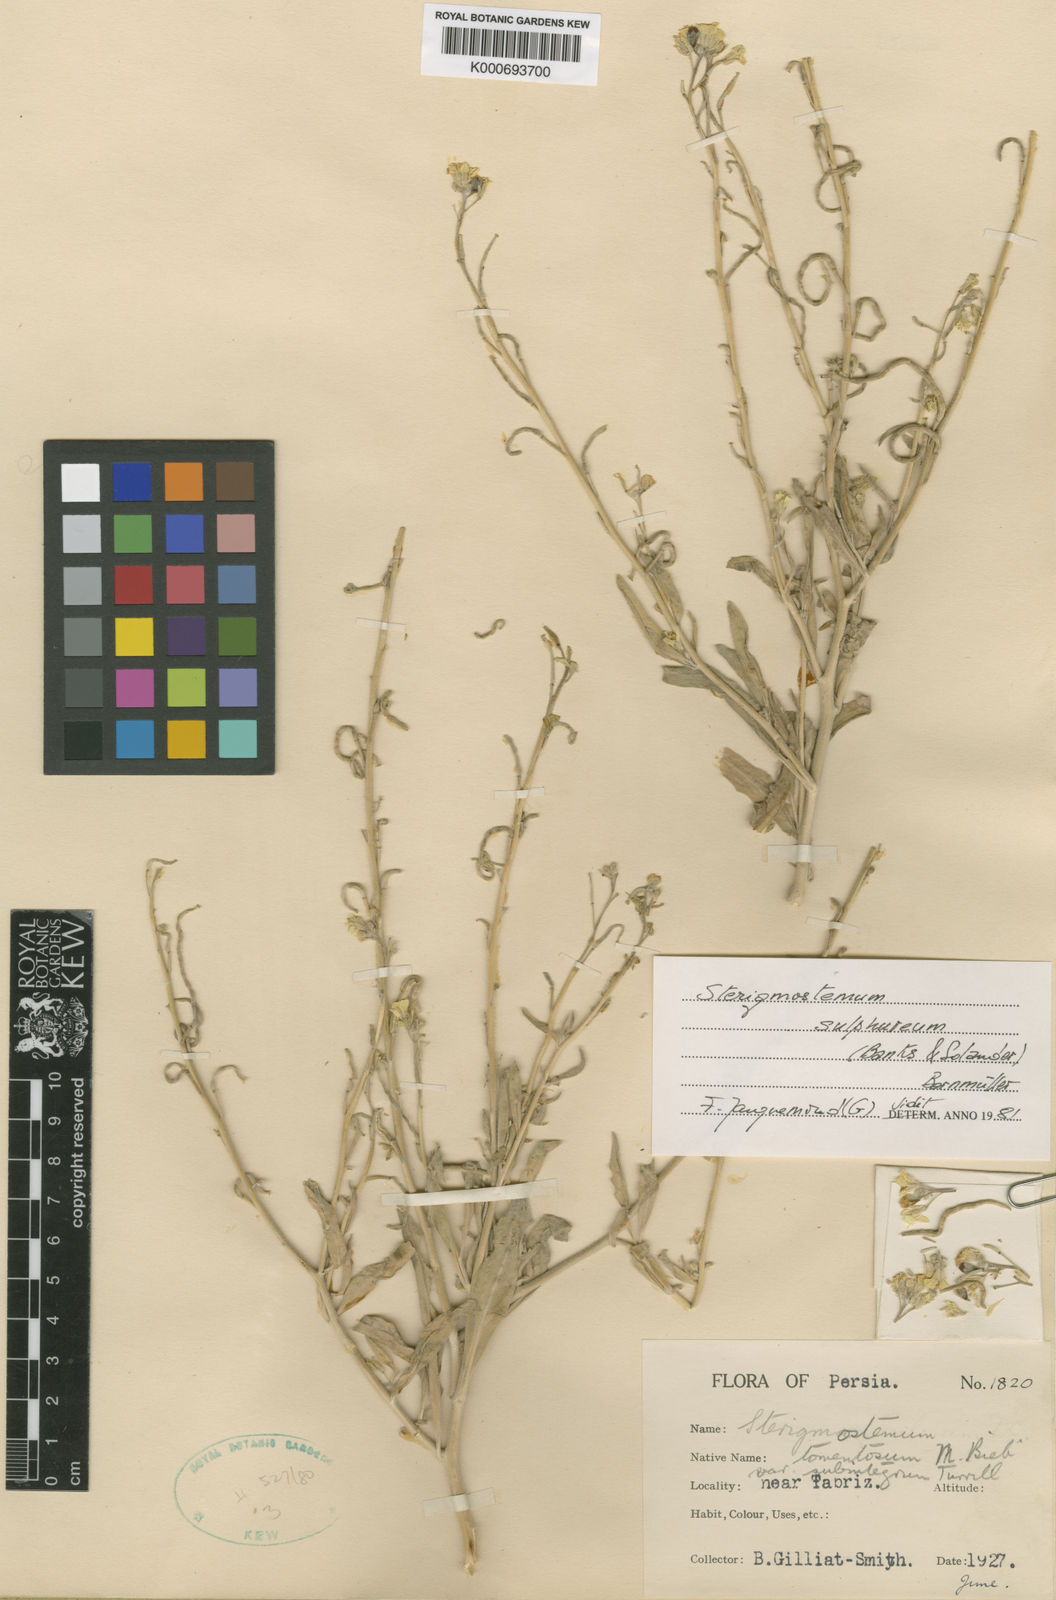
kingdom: Plantae
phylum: Tracheophyta
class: Magnoliopsida
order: Brassicales
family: Brassicaceae
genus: Sterigmostemum
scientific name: Sterigmostemum
